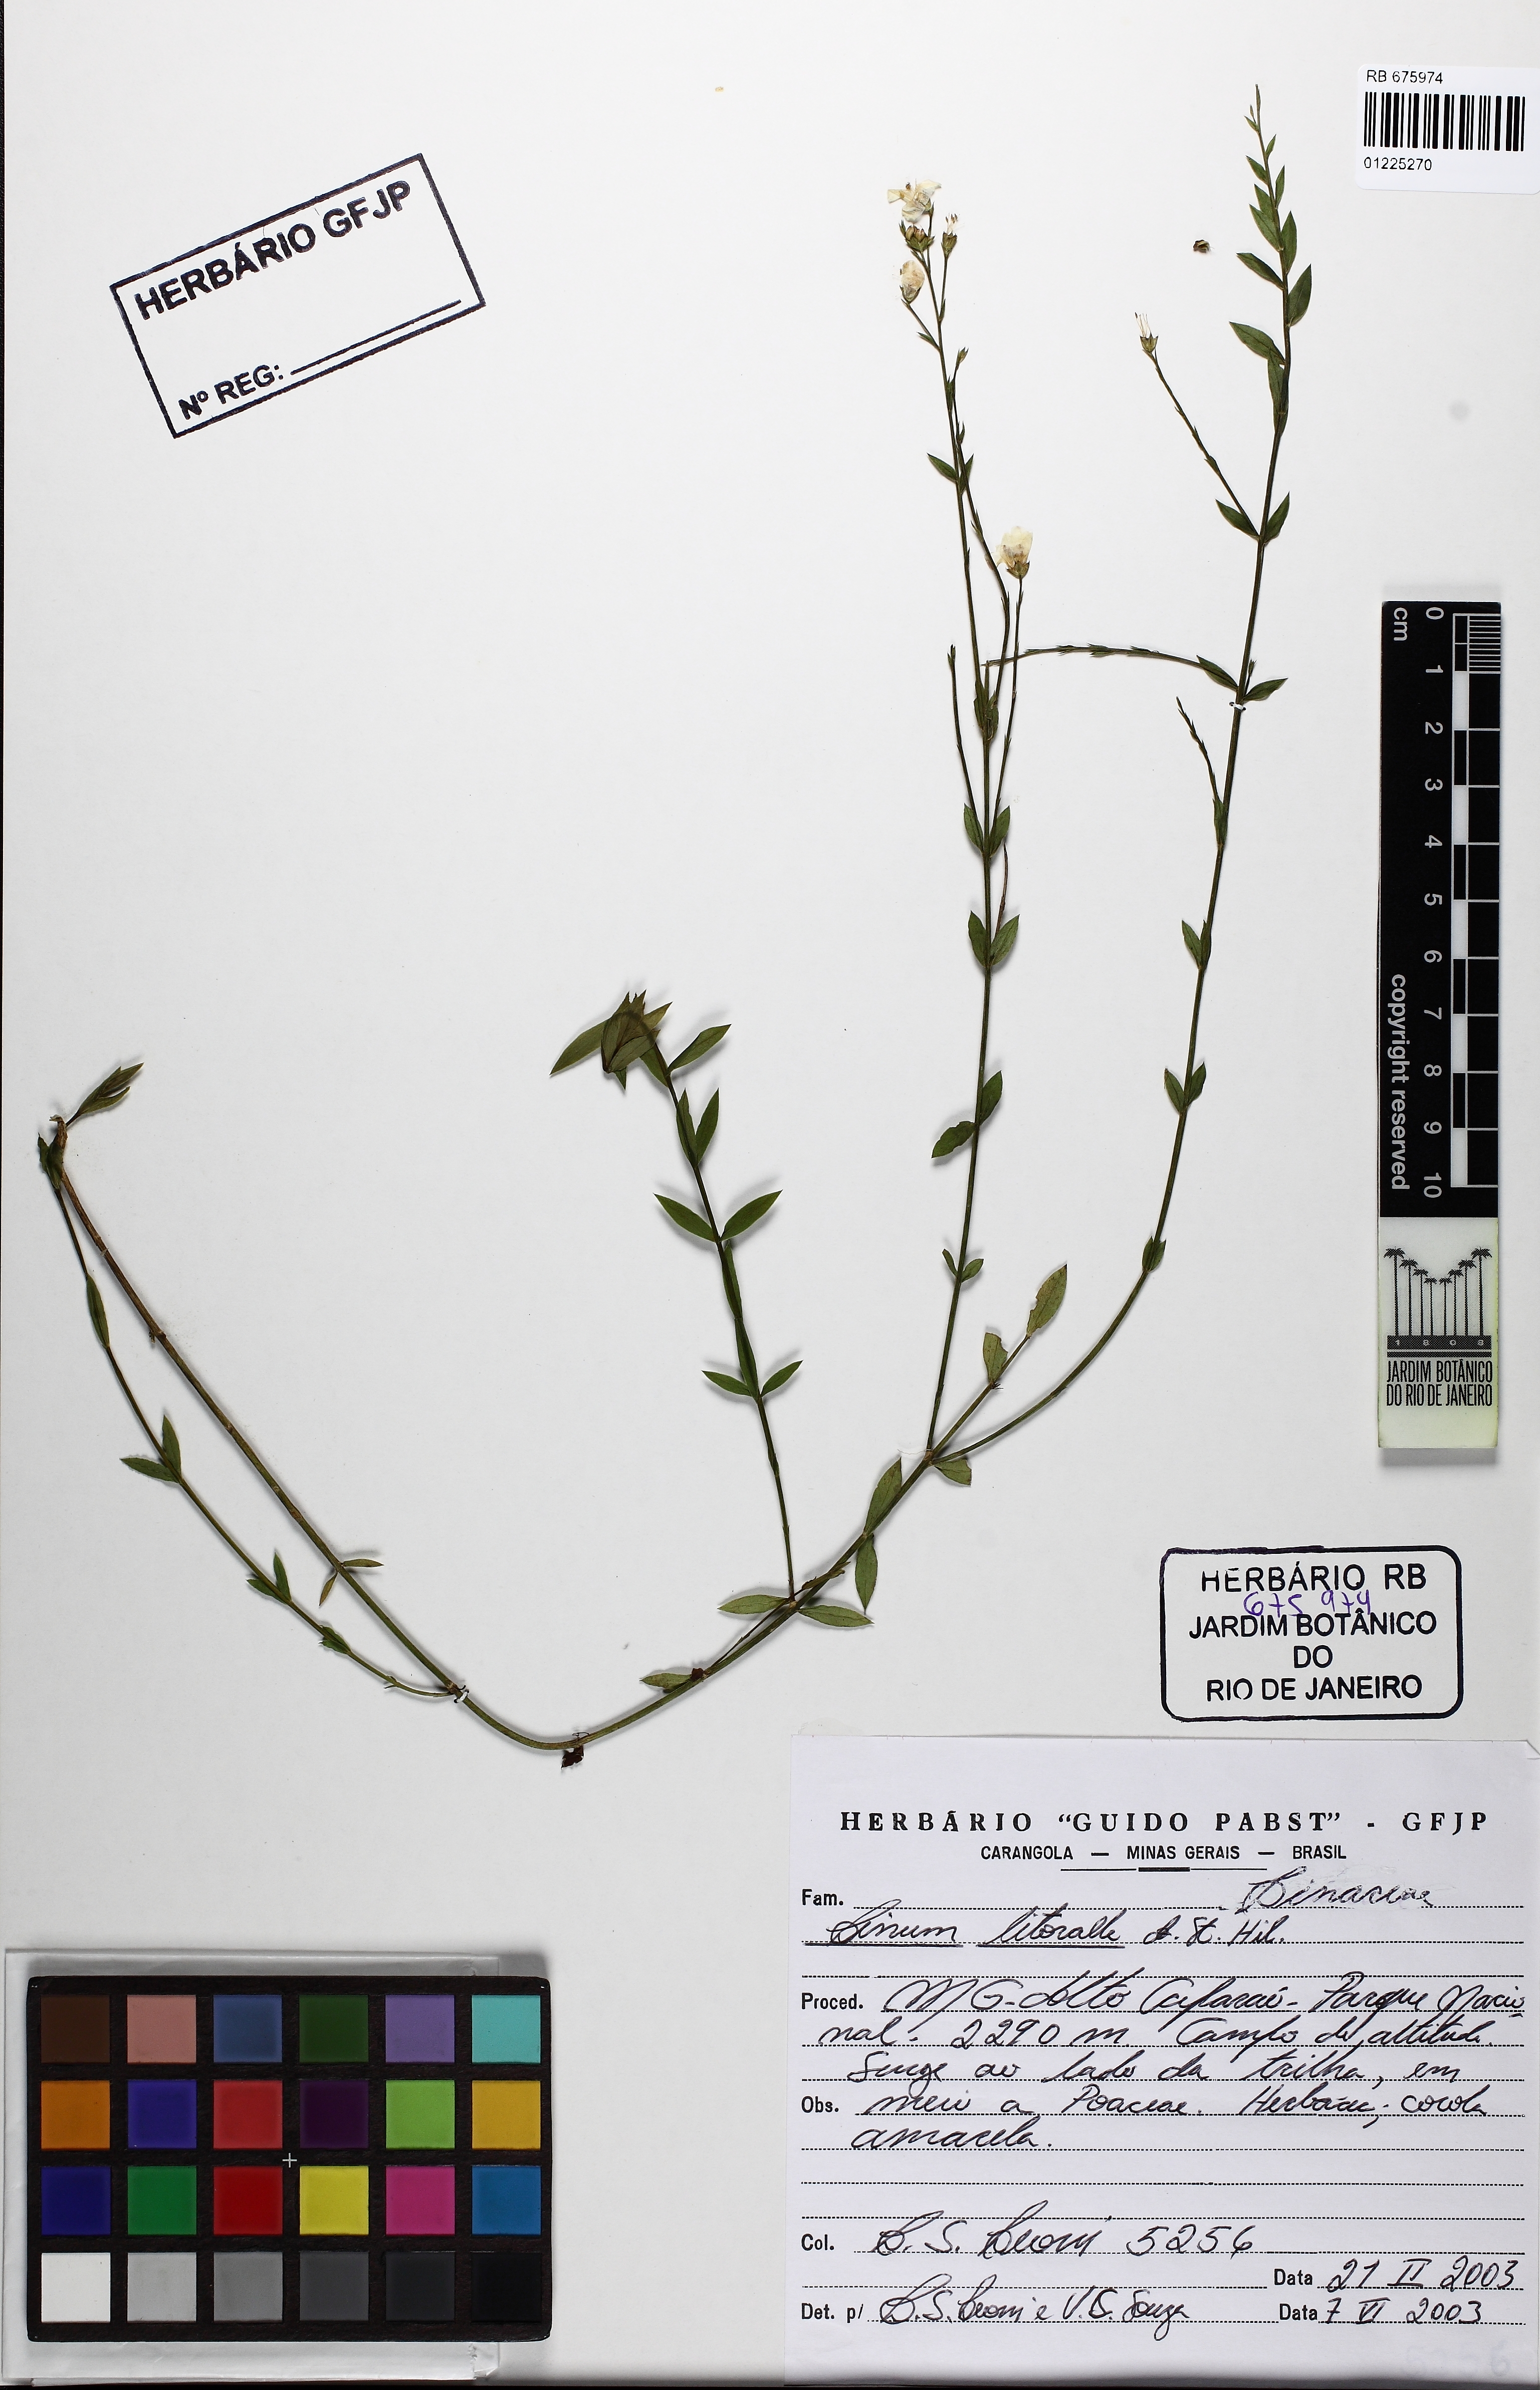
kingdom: Plantae
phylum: Tracheophyta
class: Magnoliopsida
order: Malpighiales
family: Linaceae
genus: Linum
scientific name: Linum littorale
